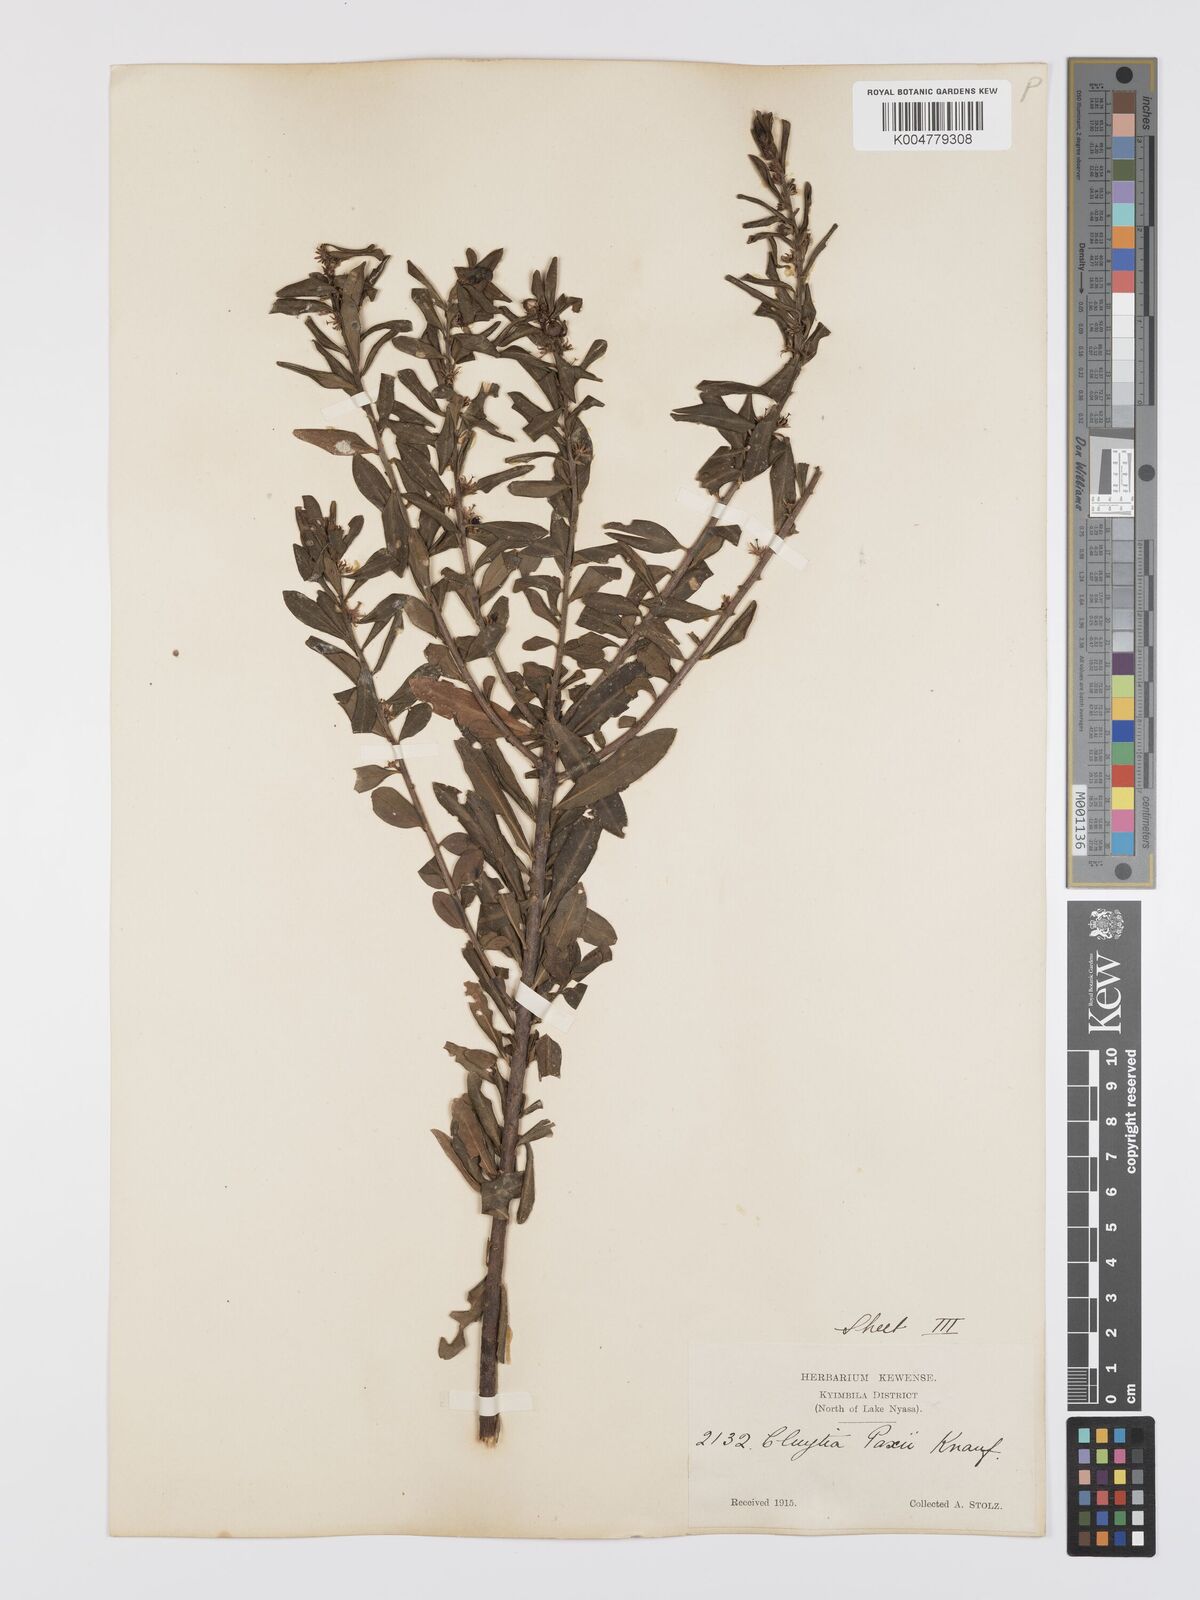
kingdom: Plantae
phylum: Tracheophyta
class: Magnoliopsida
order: Malpighiales
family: Peraceae
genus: Clutia
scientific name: Clutia paxii
